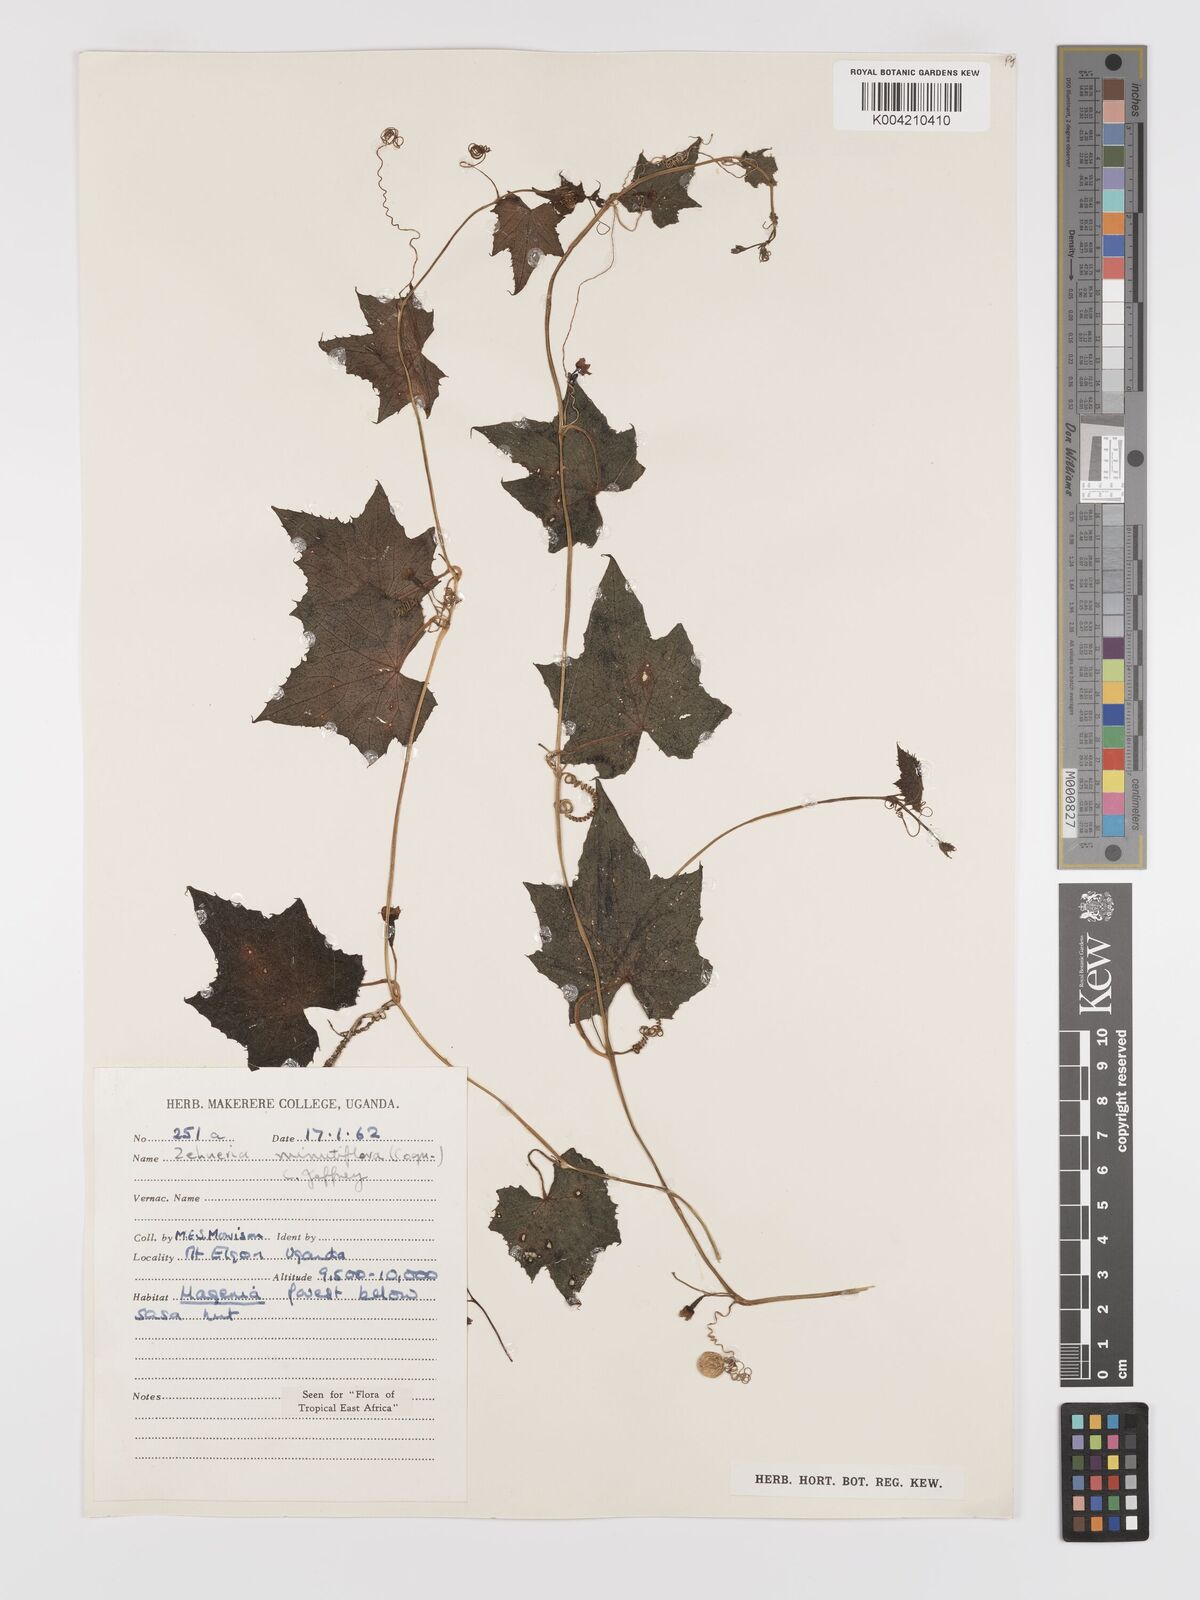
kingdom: Plantae
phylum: Tracheophyta
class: Magnoliopsida
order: Cucurbitales
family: Cucurbitaceae
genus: Zehneria
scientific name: Zehneria minutiflora
